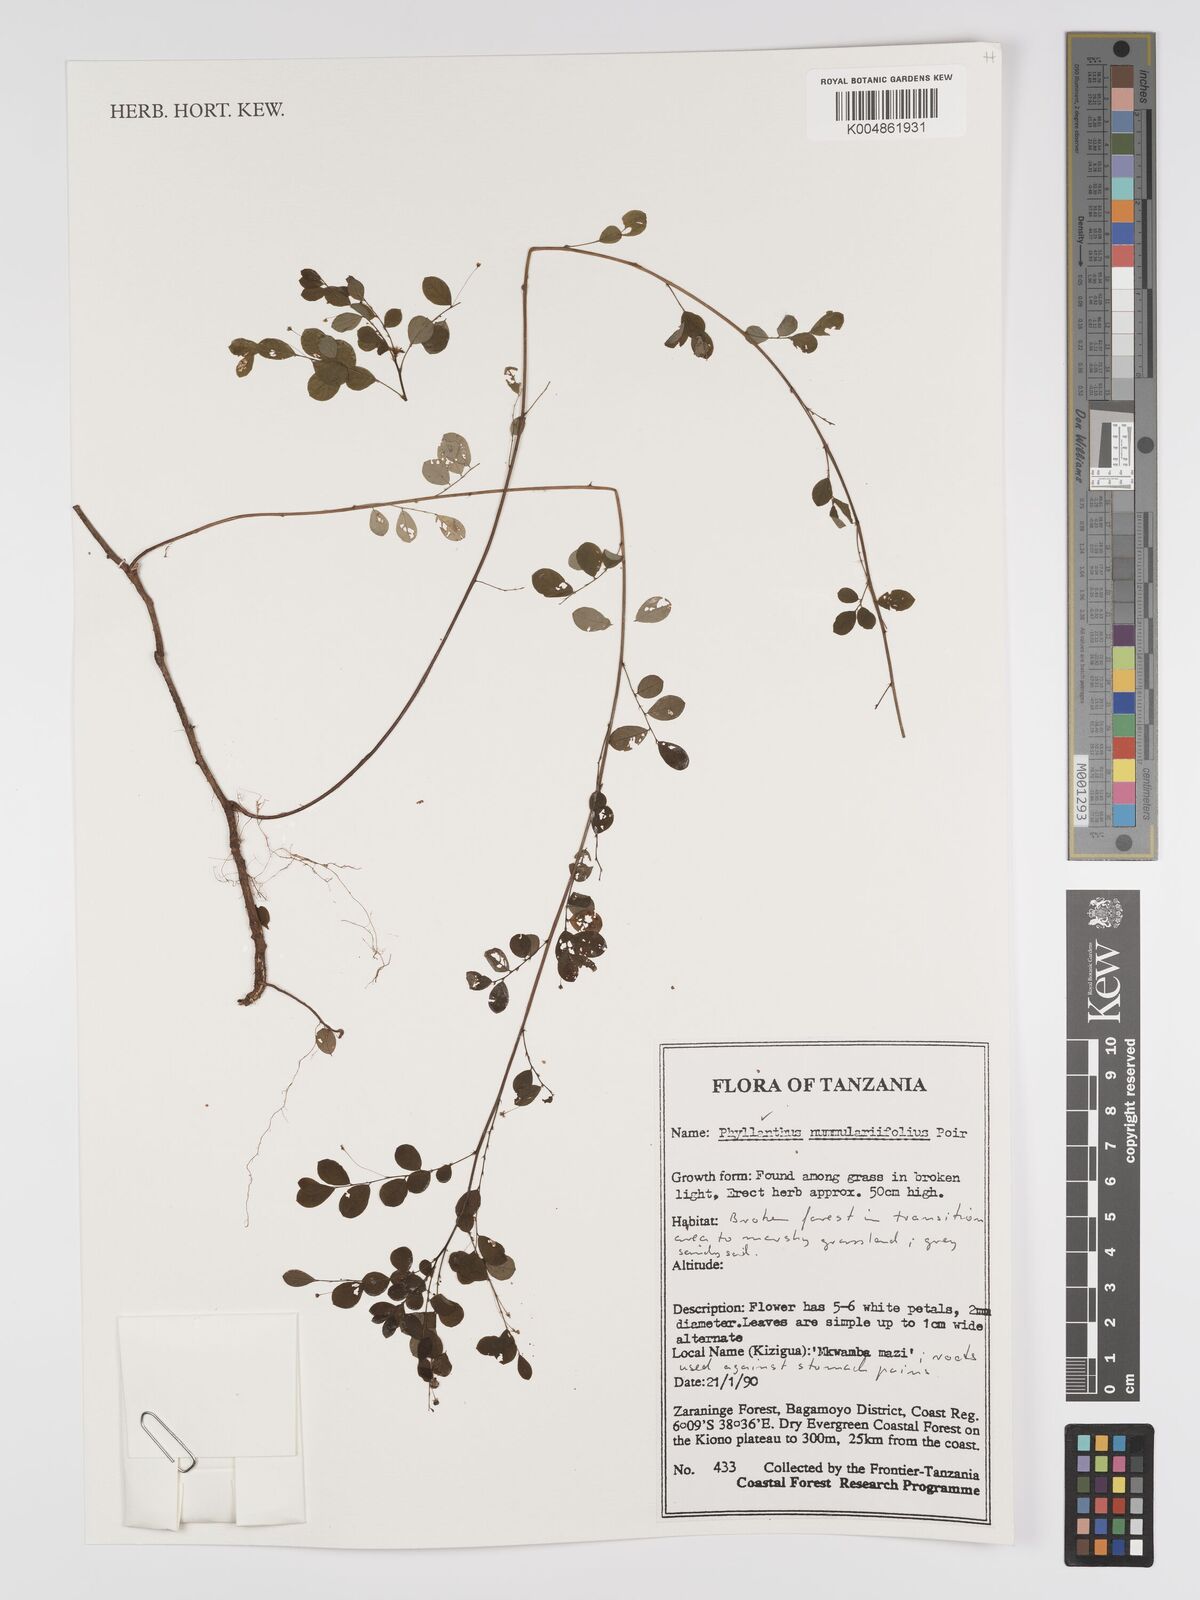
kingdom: Plantae
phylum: Tracheophyta
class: Magnoliopsida
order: Malpighiales
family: Phyllanthaceae
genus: Phyllanthus
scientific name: Phyllanthus nummulariifolius
